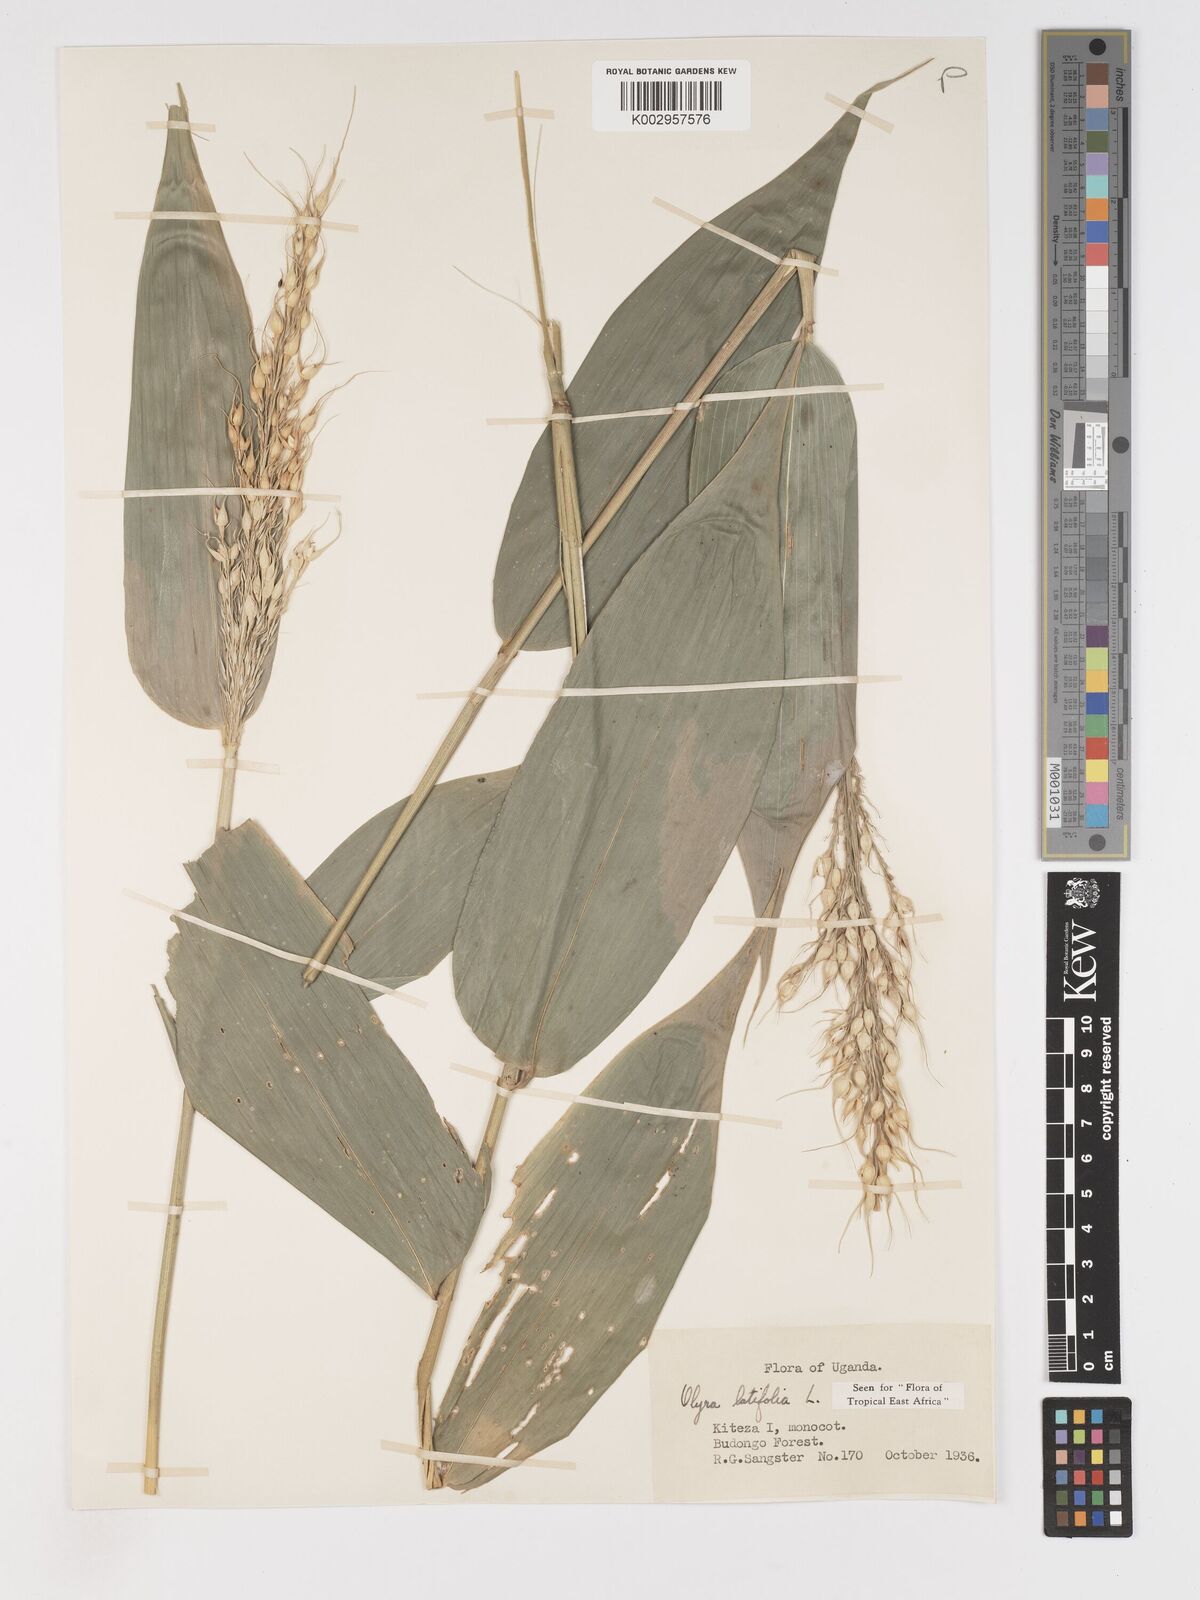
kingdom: Plantae
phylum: Tracheophyta
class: Liliopsida
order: Poales
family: Poaceae
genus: Olyra
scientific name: Olyra latifolia
